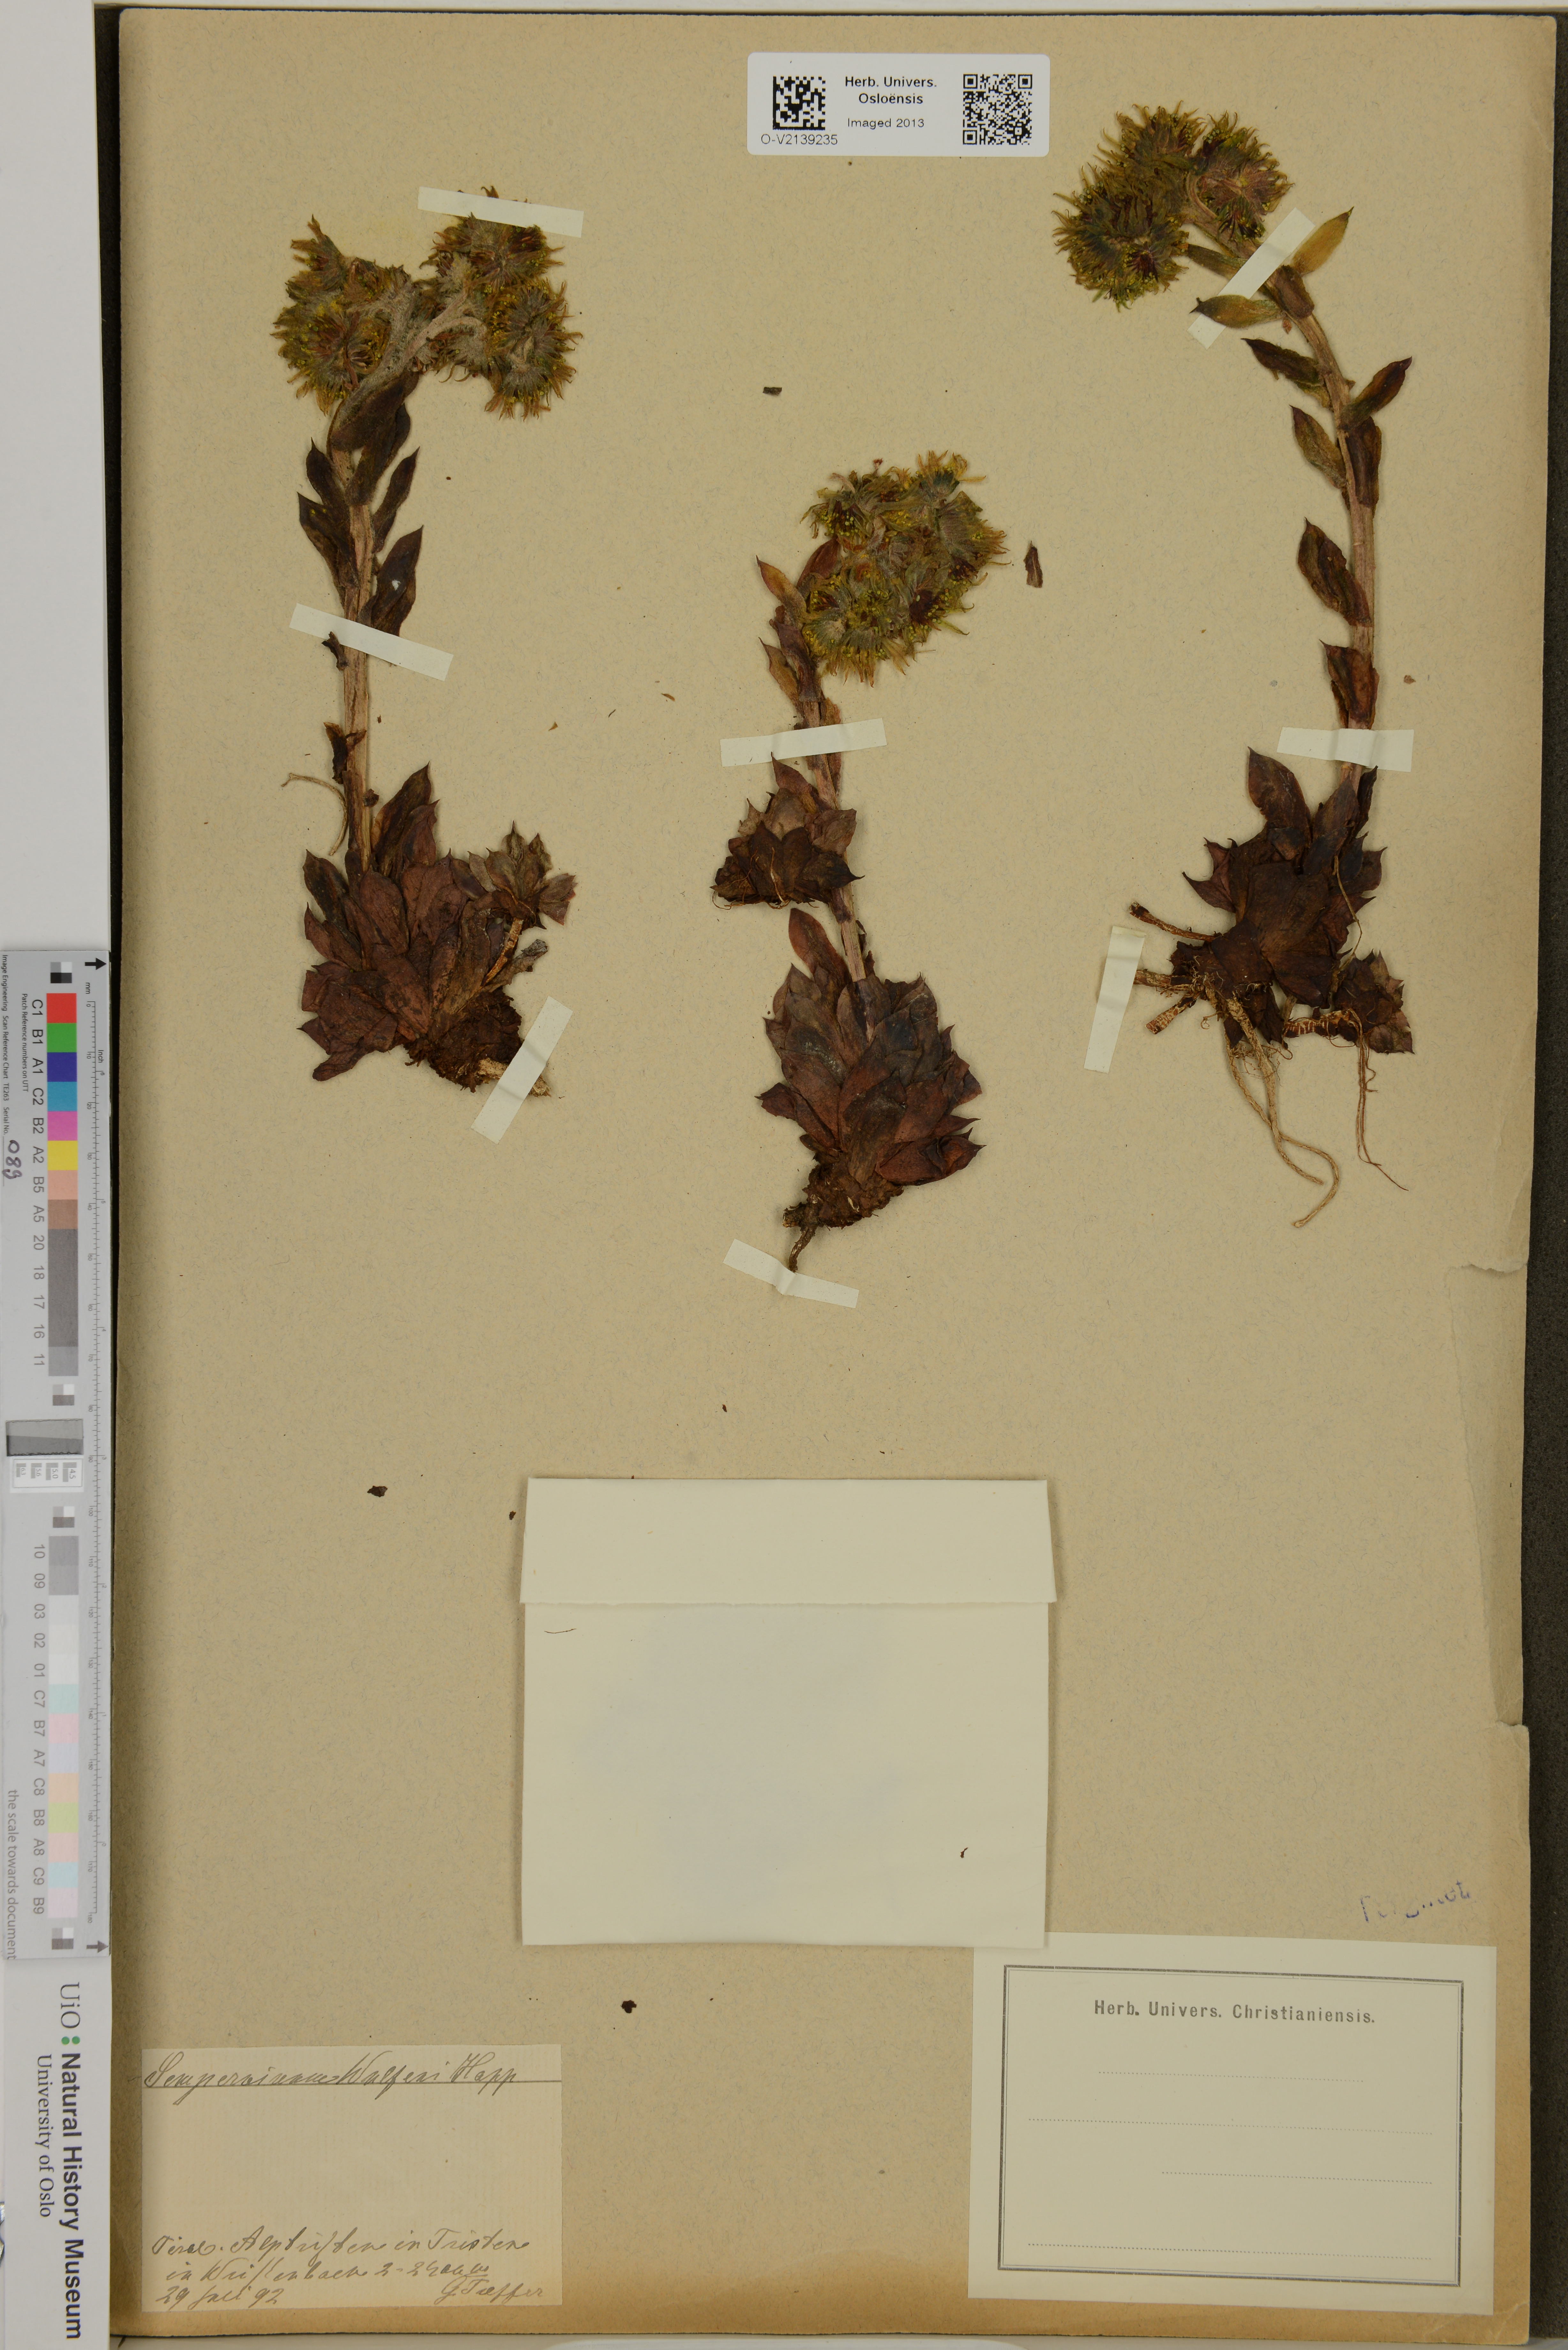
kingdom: Plantae
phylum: Tracheophyta
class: Magnoliopsida
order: Saxifragales
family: Crassulaceae
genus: Sempervivum
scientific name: Sempervivum wulfenii
